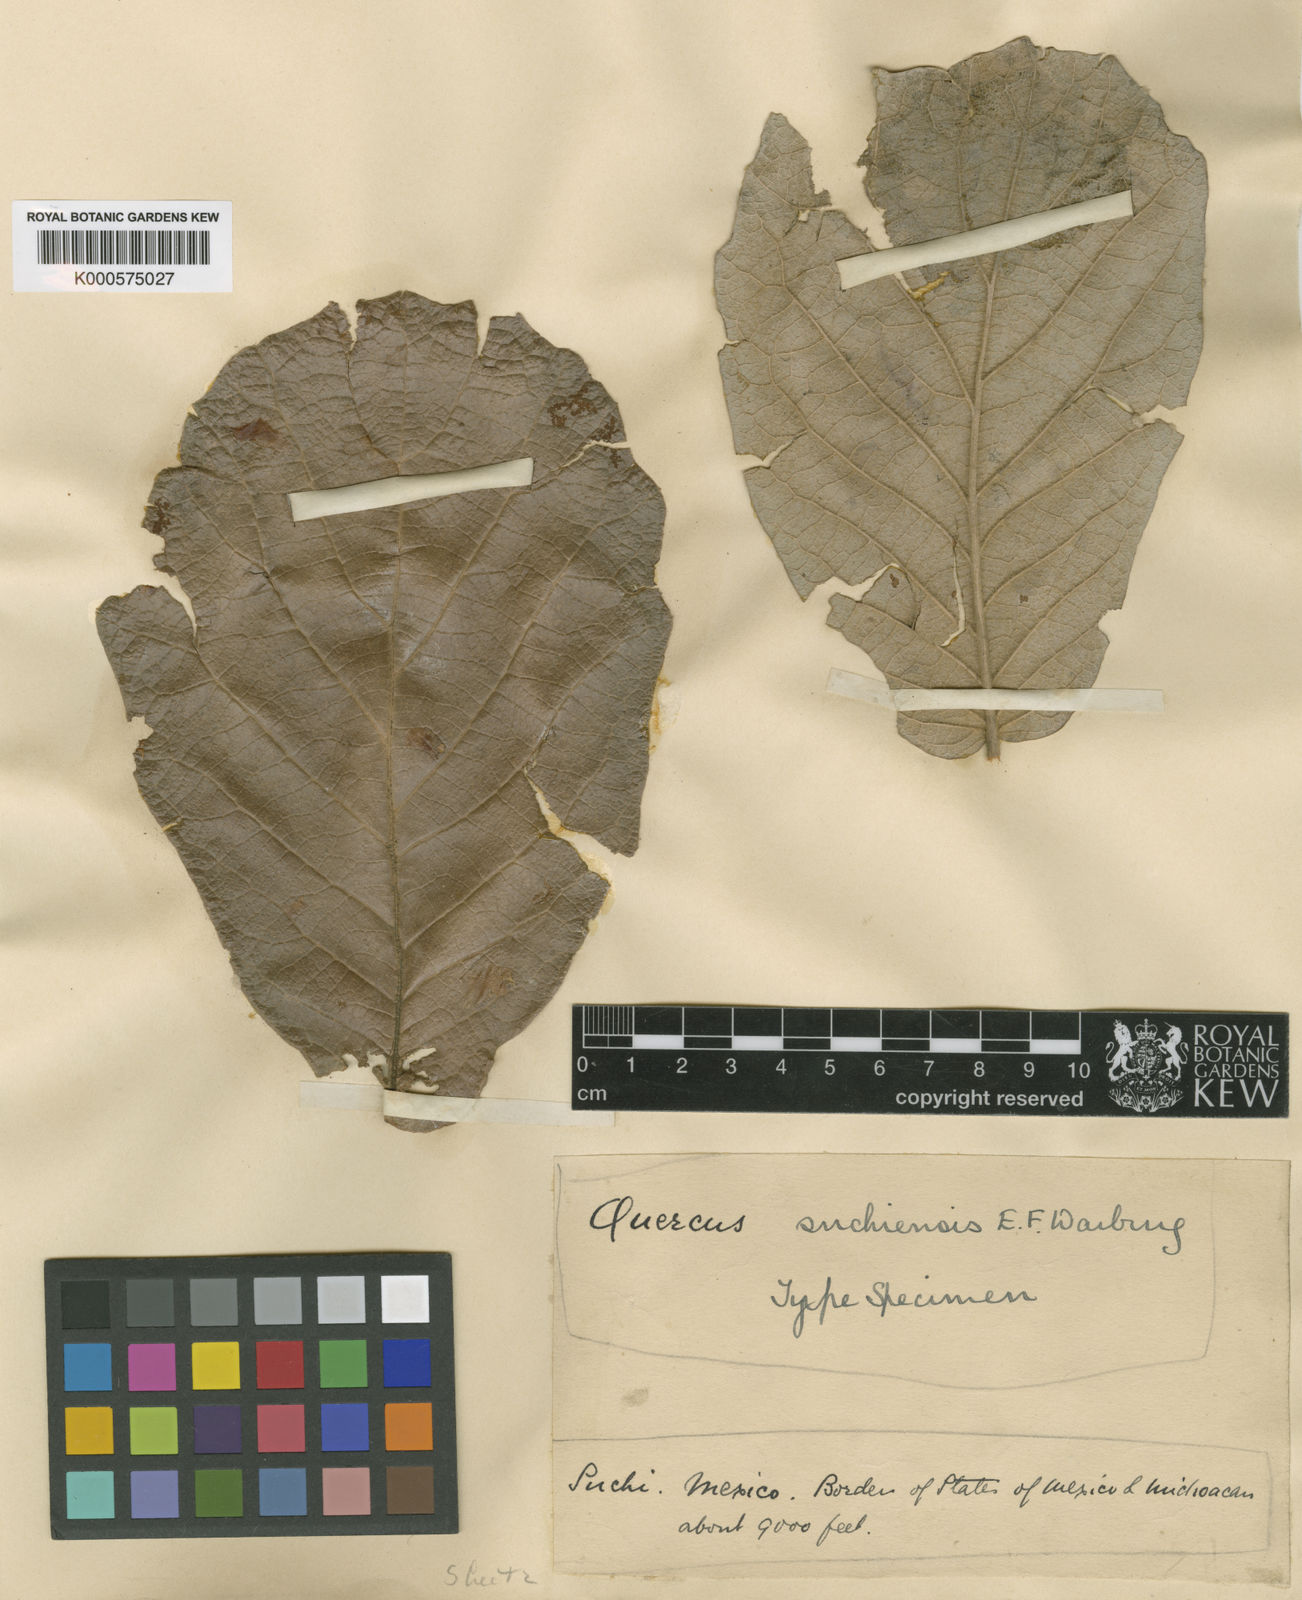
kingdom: Plantae
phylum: Tracheophyta
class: Magnoliopsida
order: Fagales
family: Fagaceae
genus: Quercus
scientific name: Quercus rugosa
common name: Netleaf oak
